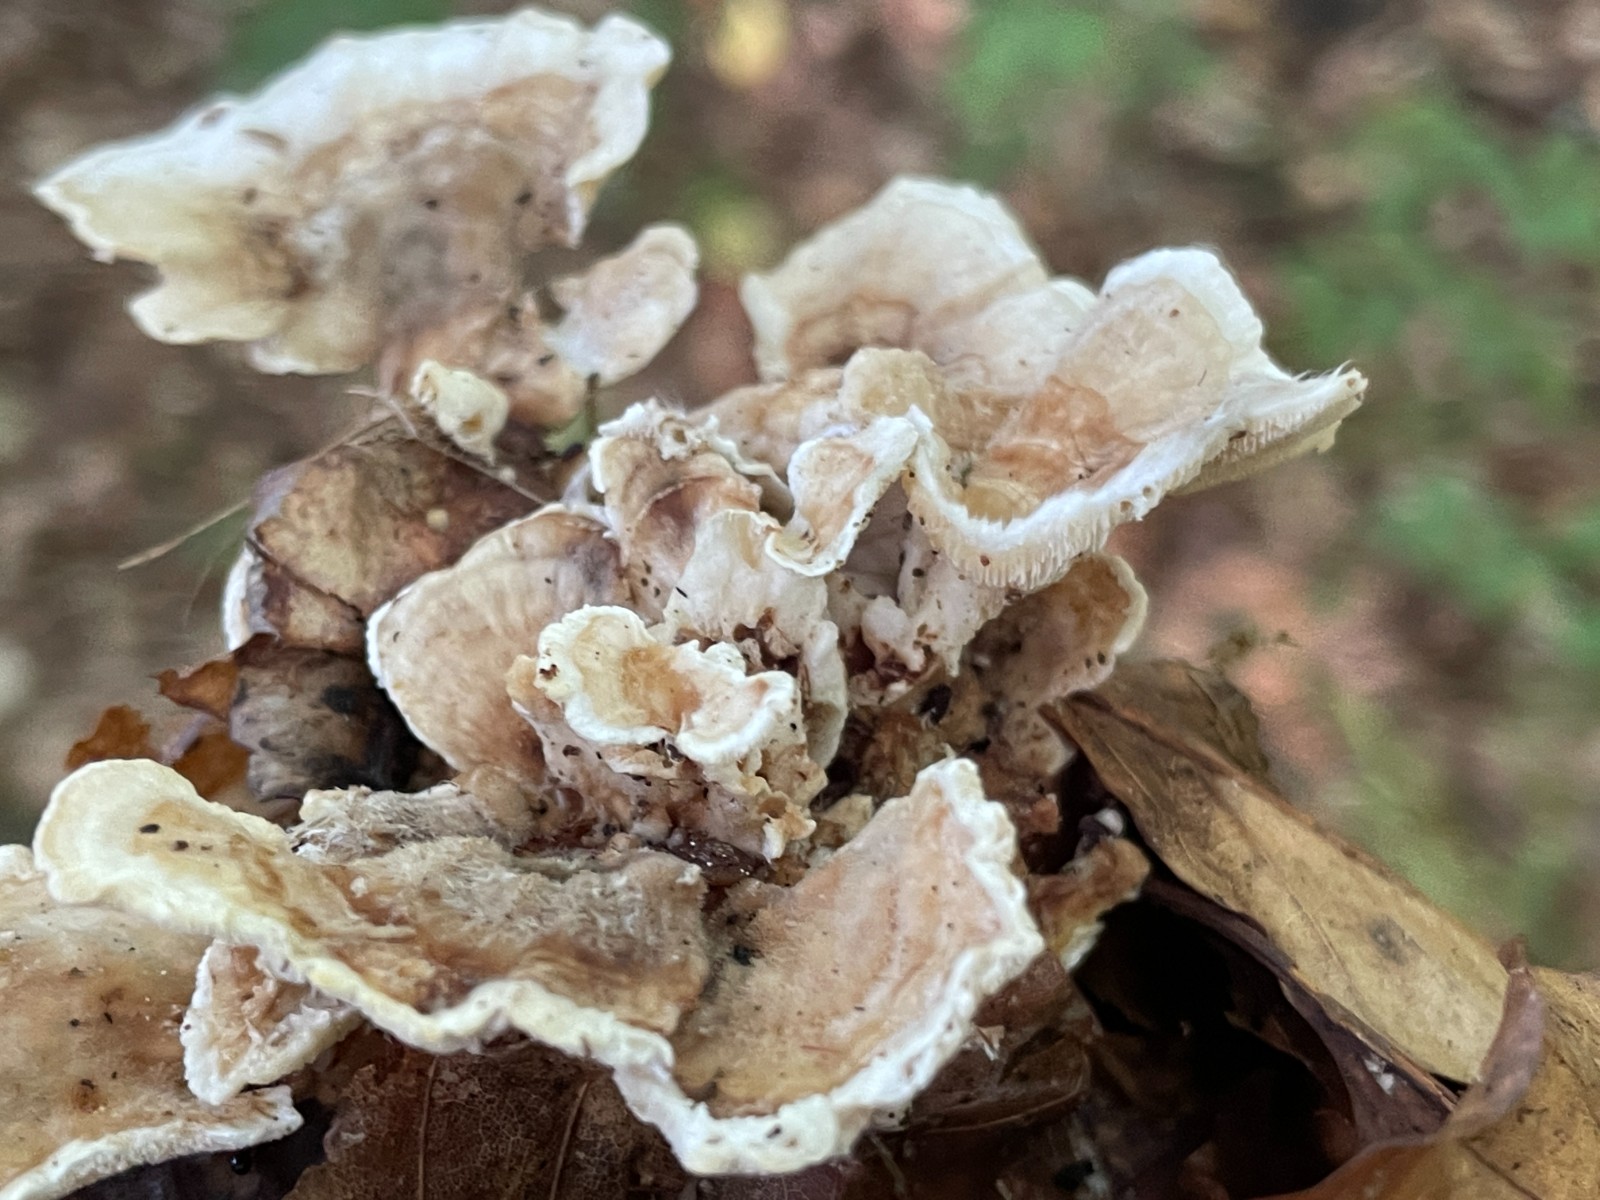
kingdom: Fungi
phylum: Basidiomycota
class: Agaricomycetes
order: Polyporales
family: Polyporaceae
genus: Trametes
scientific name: Trametes
